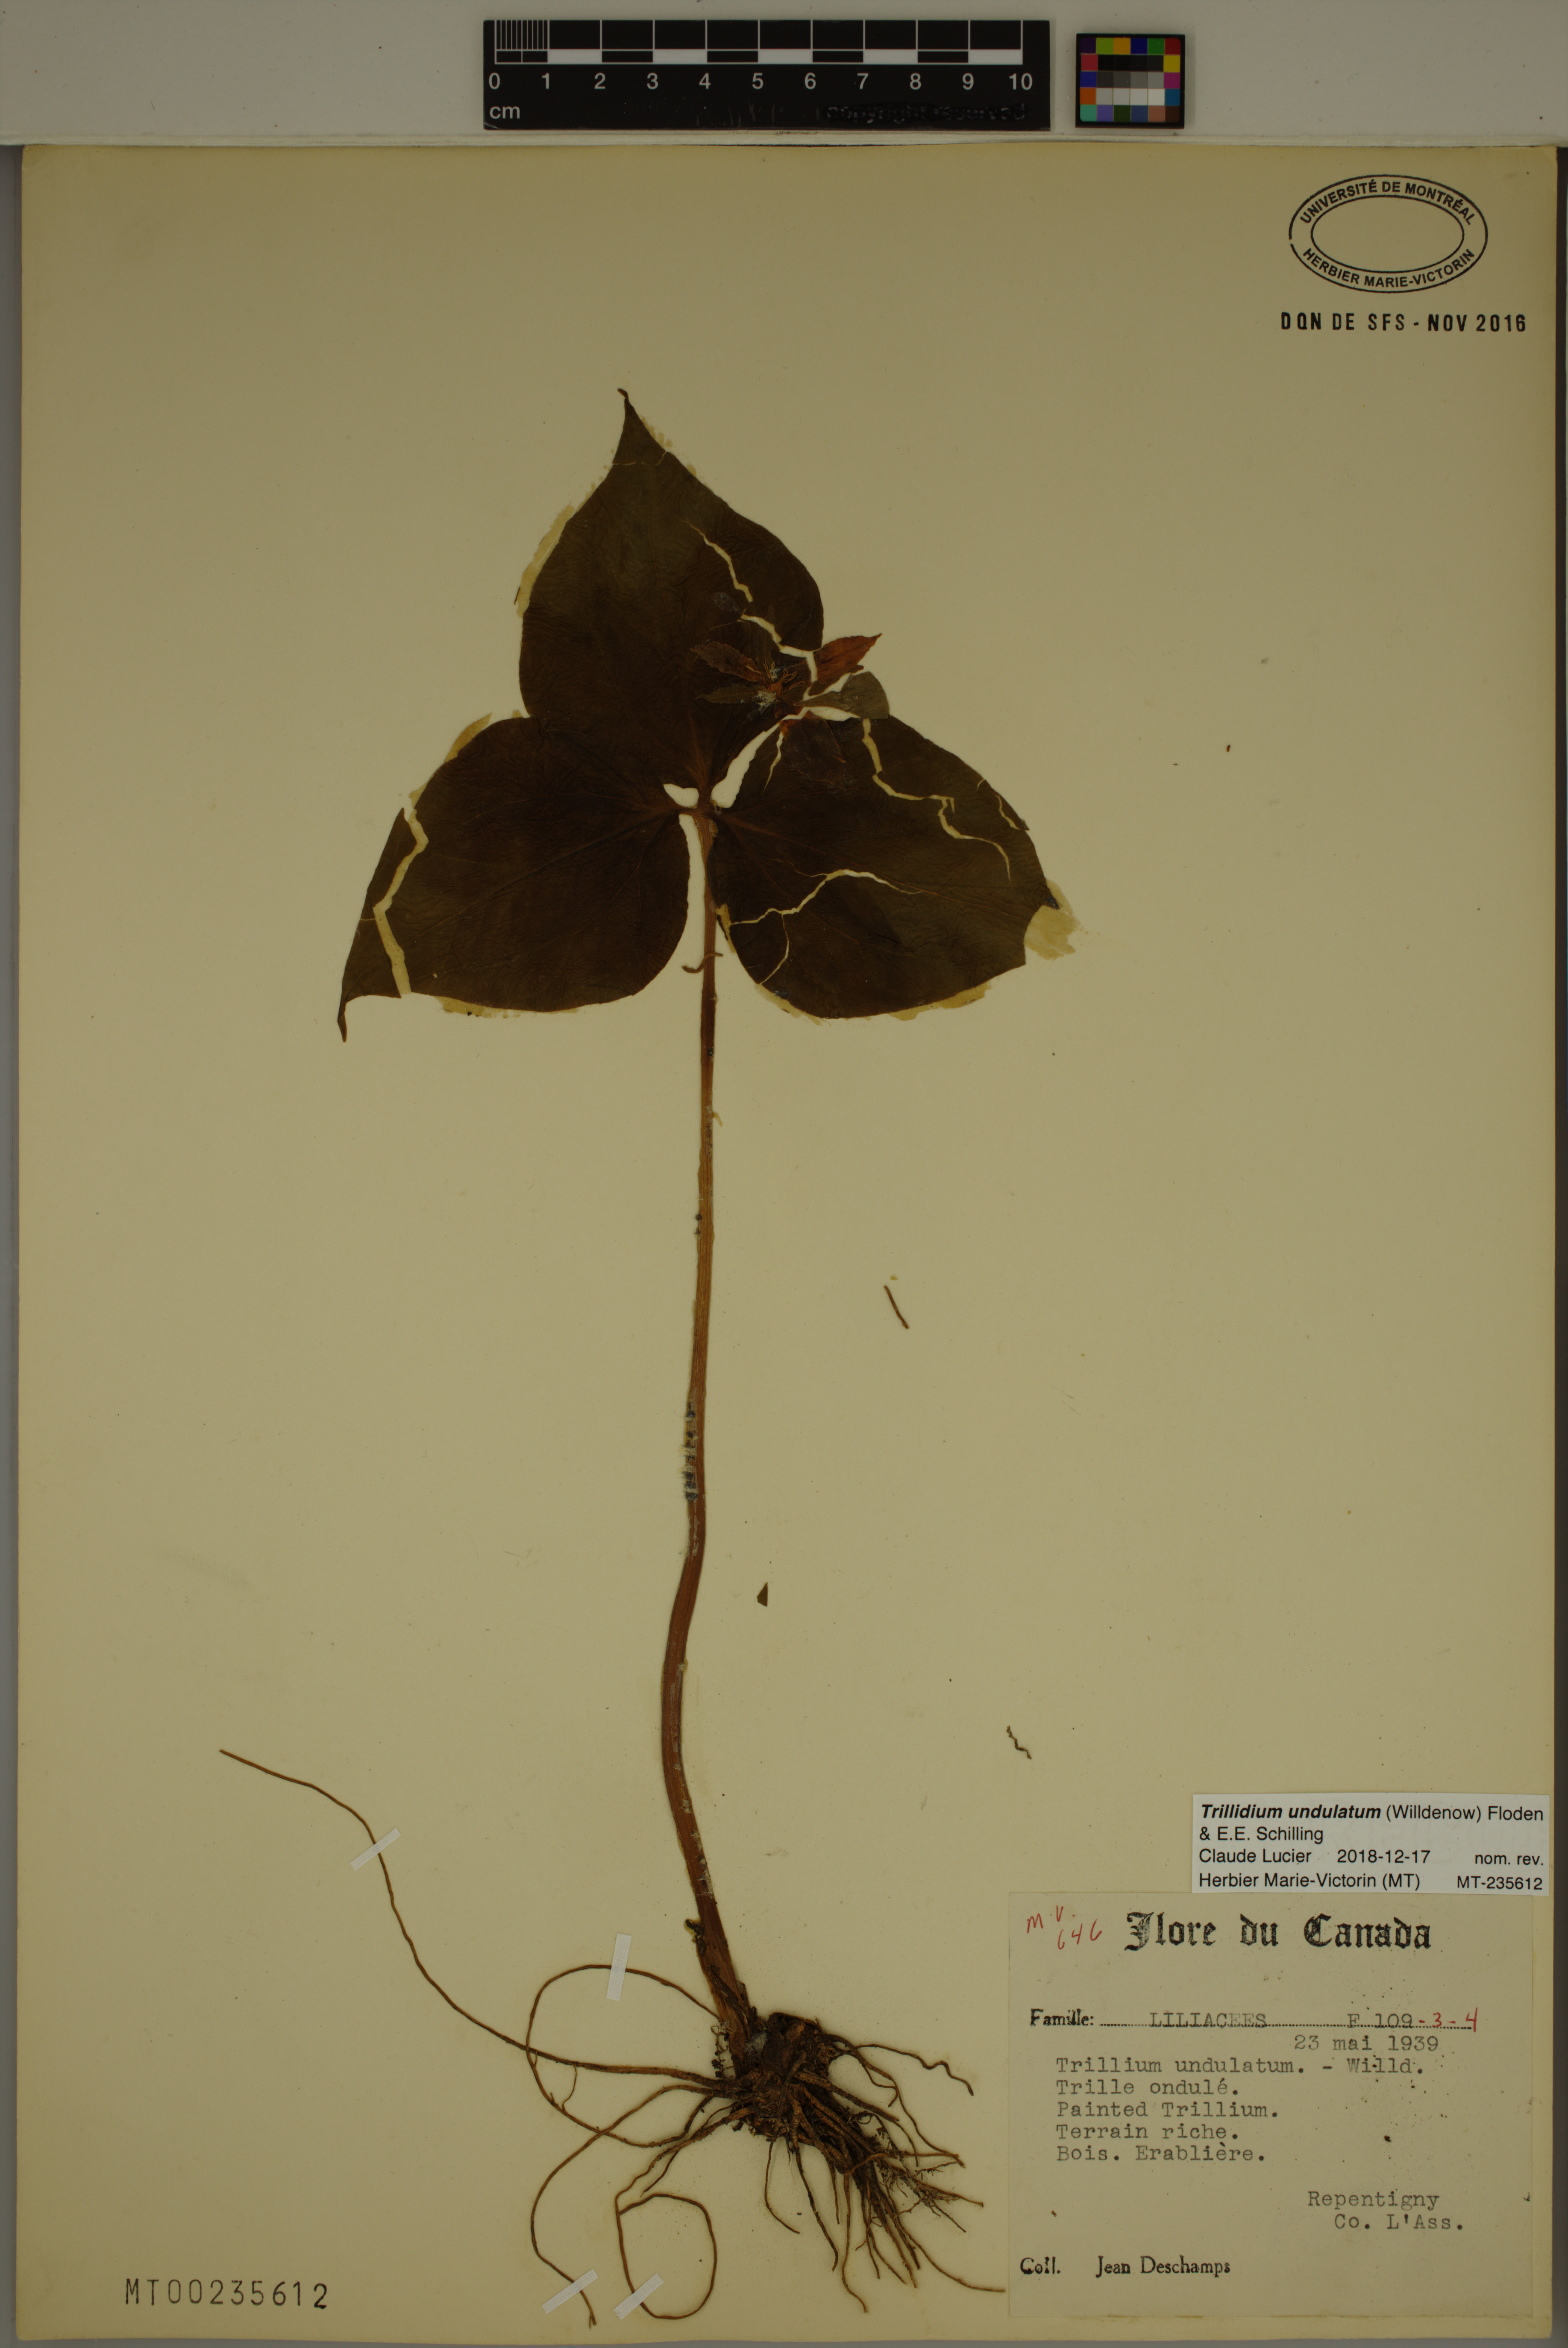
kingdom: Plantae
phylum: Tracheophyta
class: Liliopsida
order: Liliales
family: Melanthiaceae
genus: Trillium
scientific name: Trillium undulatum
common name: Paint trillium
